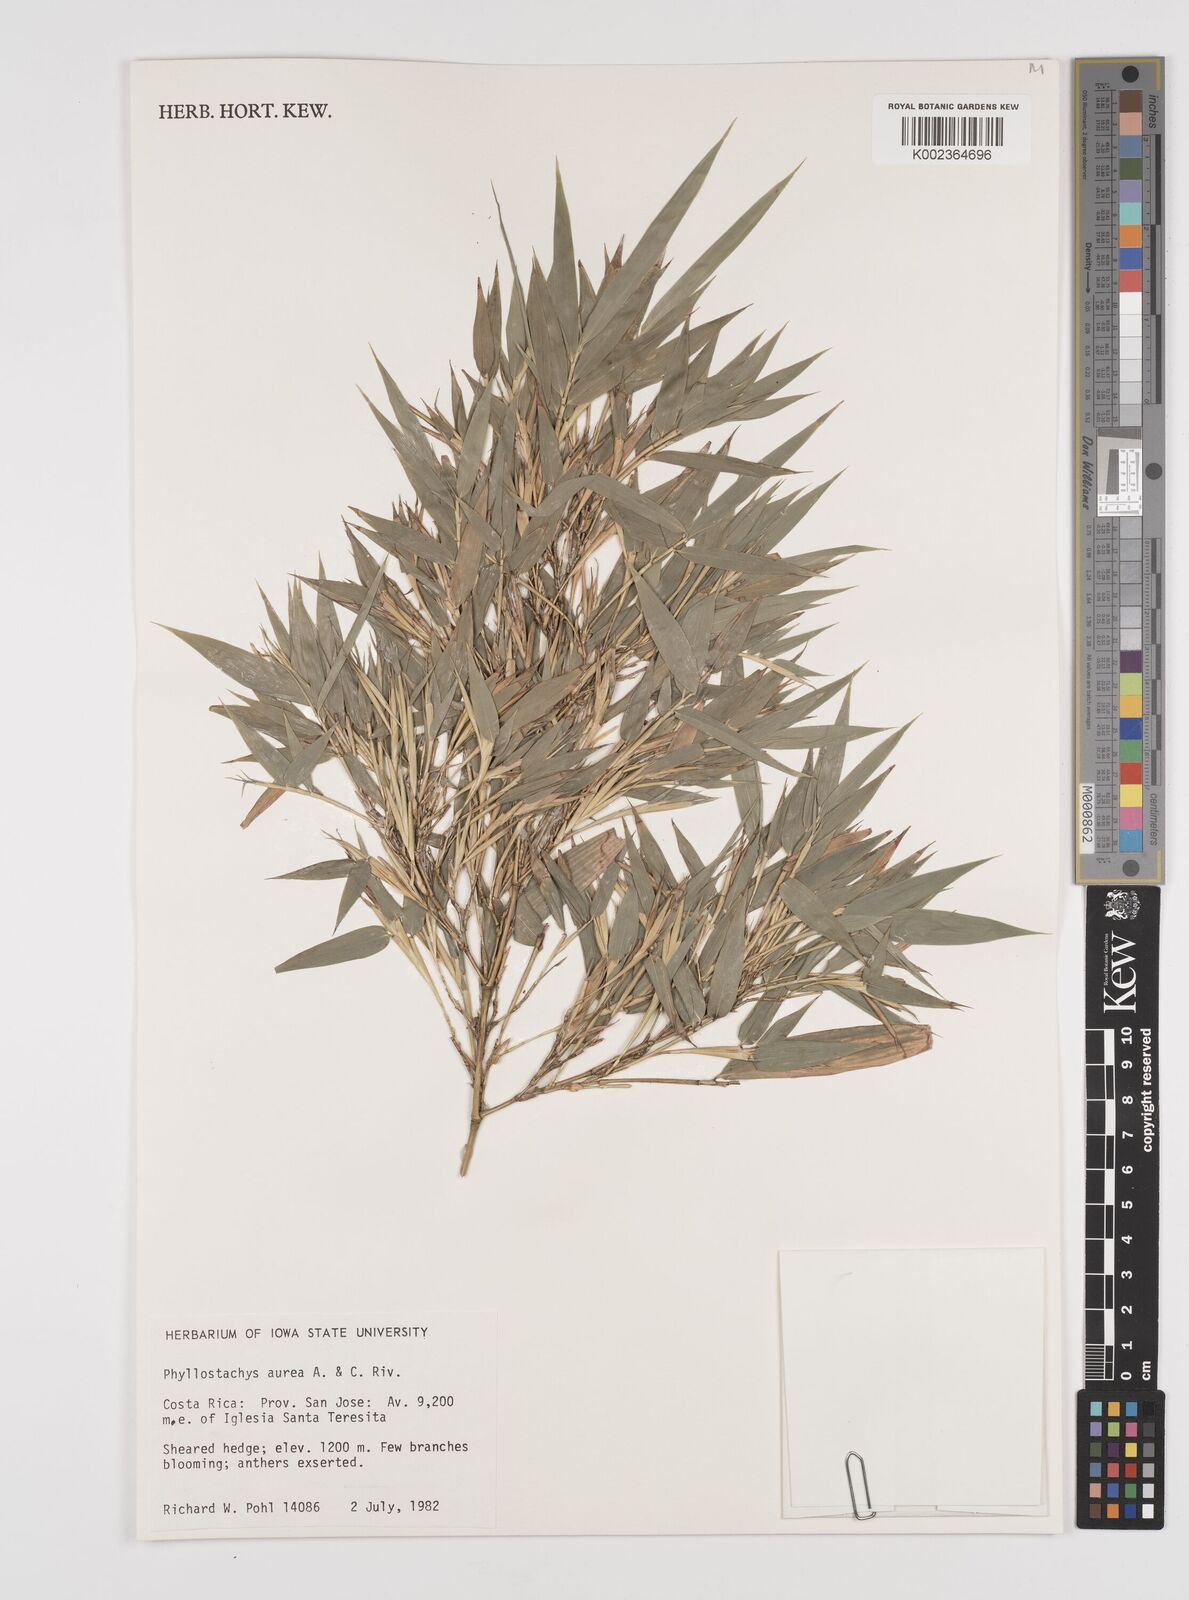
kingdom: Plantae
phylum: Tracheophyta
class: Liliopsida
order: Poales
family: Poaceae
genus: Phyllostachys
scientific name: Phyllostachys aurea
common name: Golden bamboo
